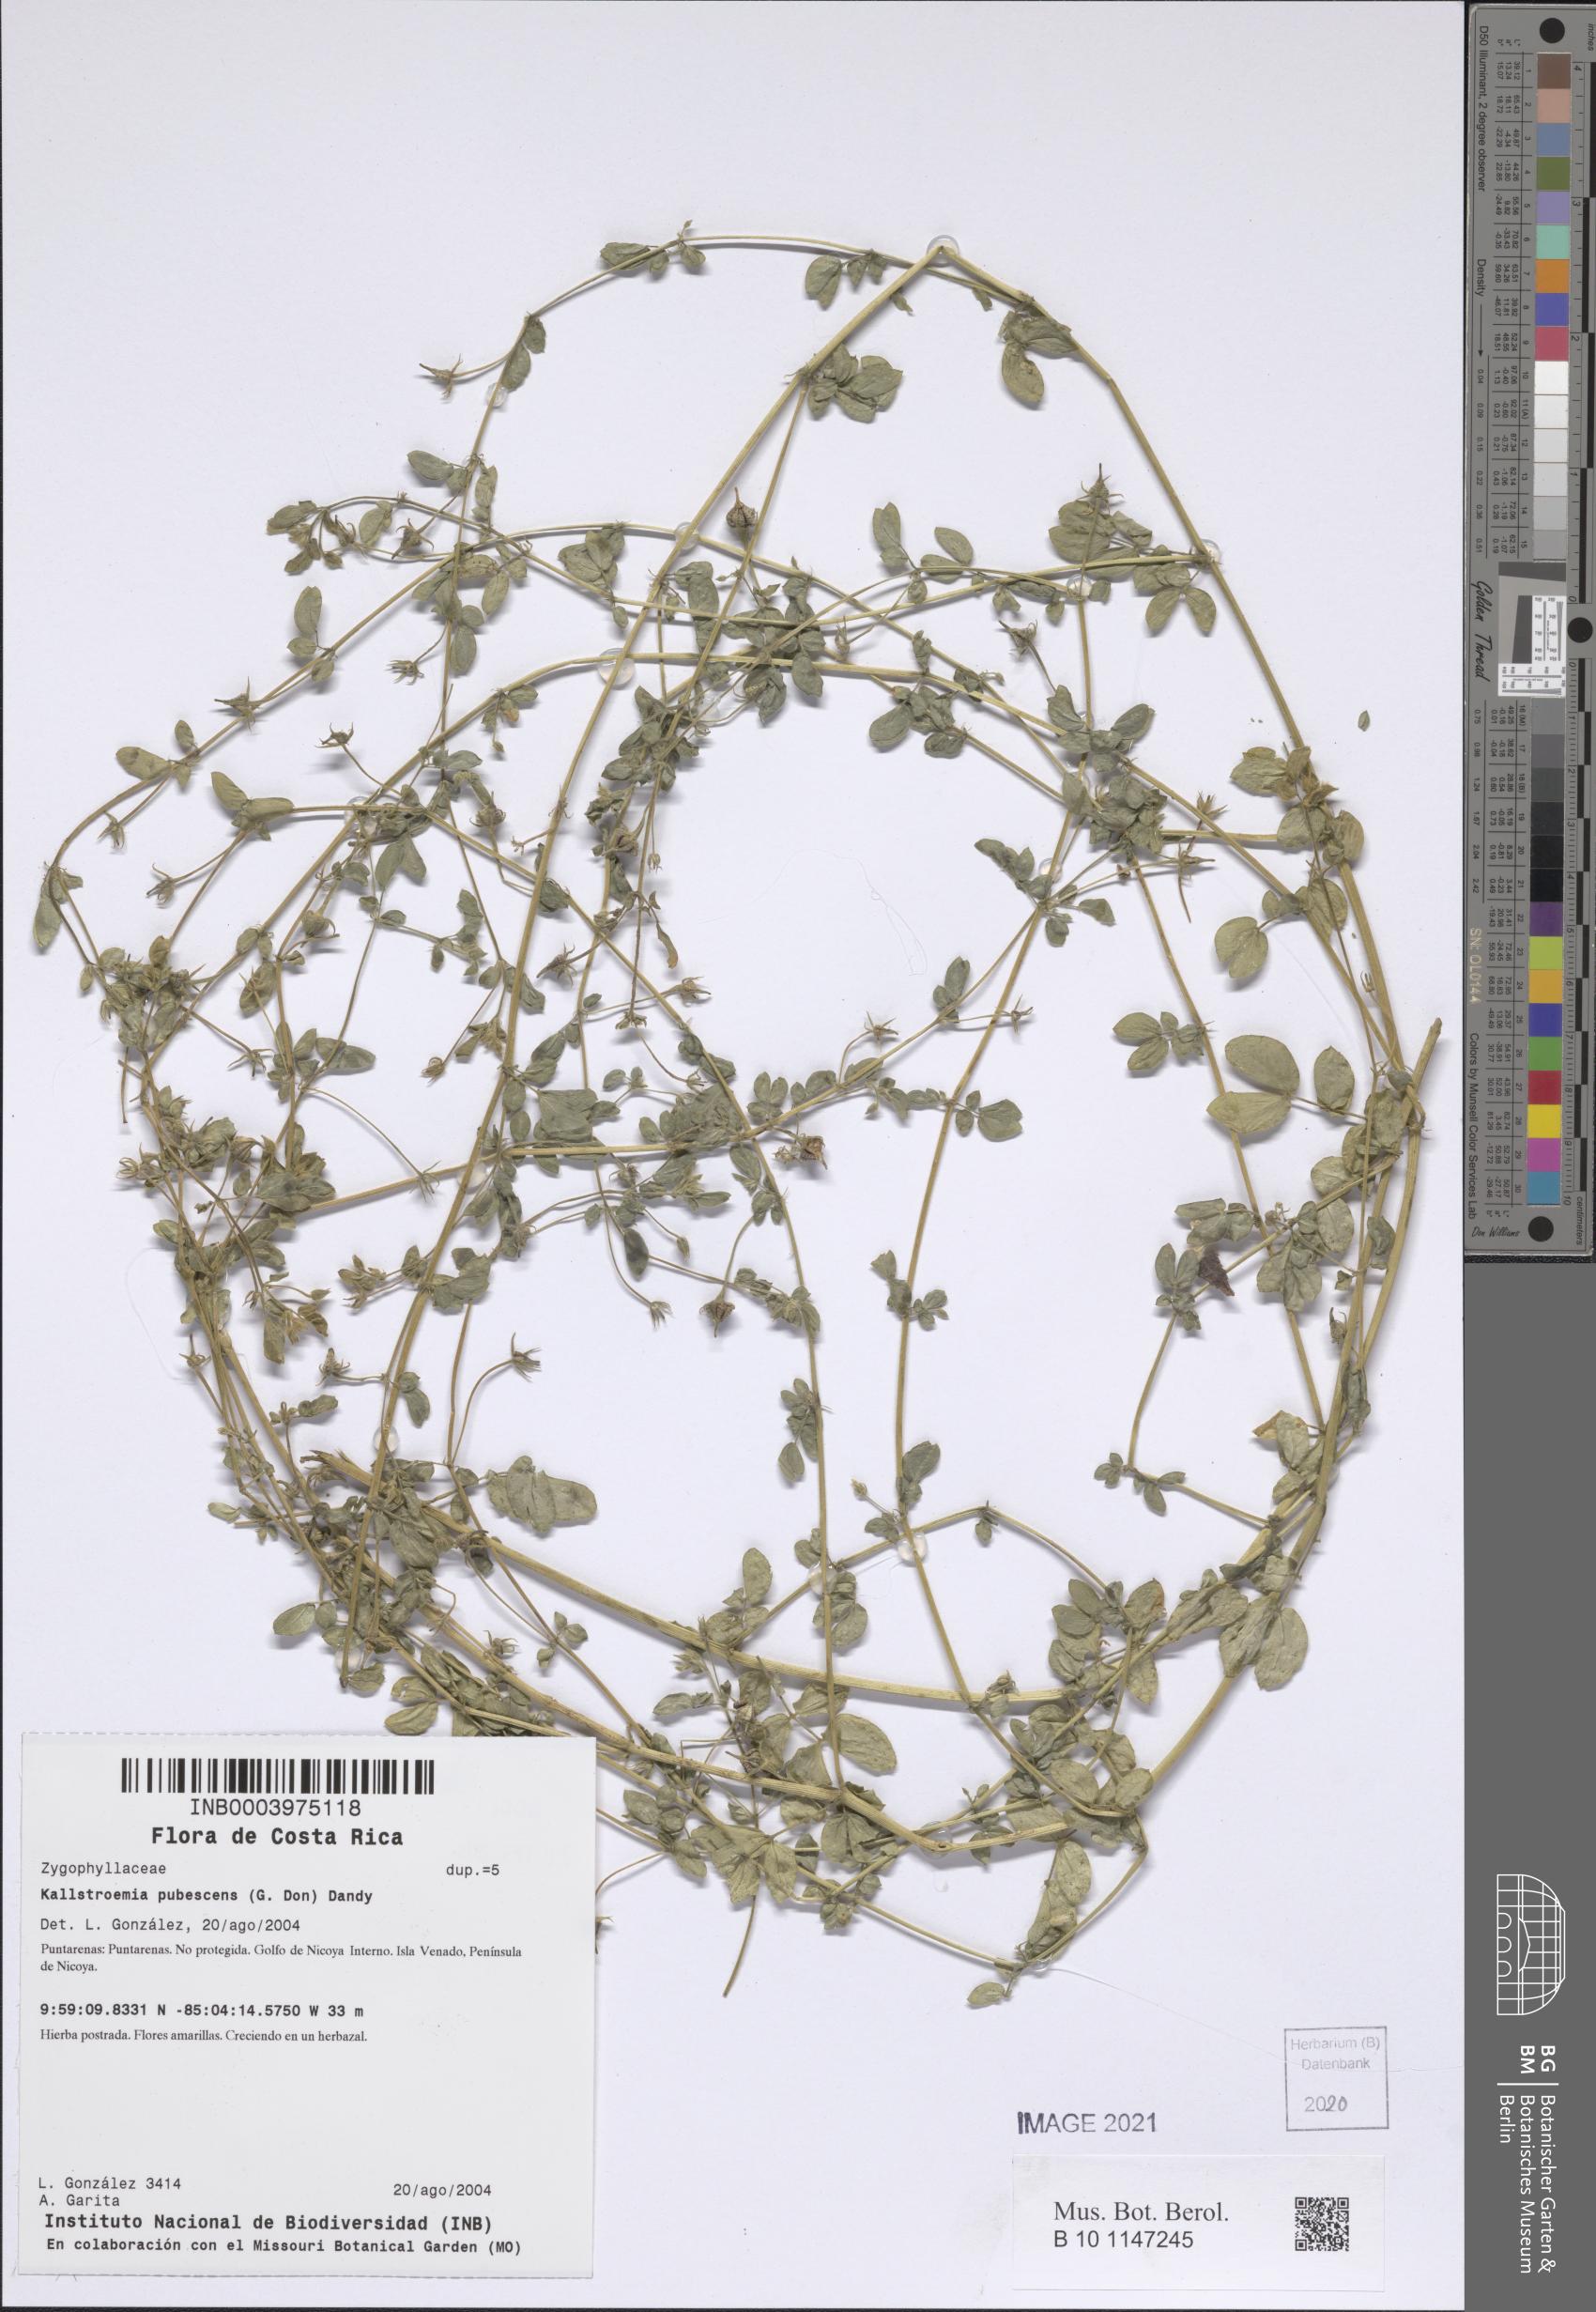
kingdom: Plantae
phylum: Tracheophyta
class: Magnoliopsida
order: Zygophyllales
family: Zygophyllaceae
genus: Kallstroemia
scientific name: Kallstroemia pubescens
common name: Caribbean caltrop
